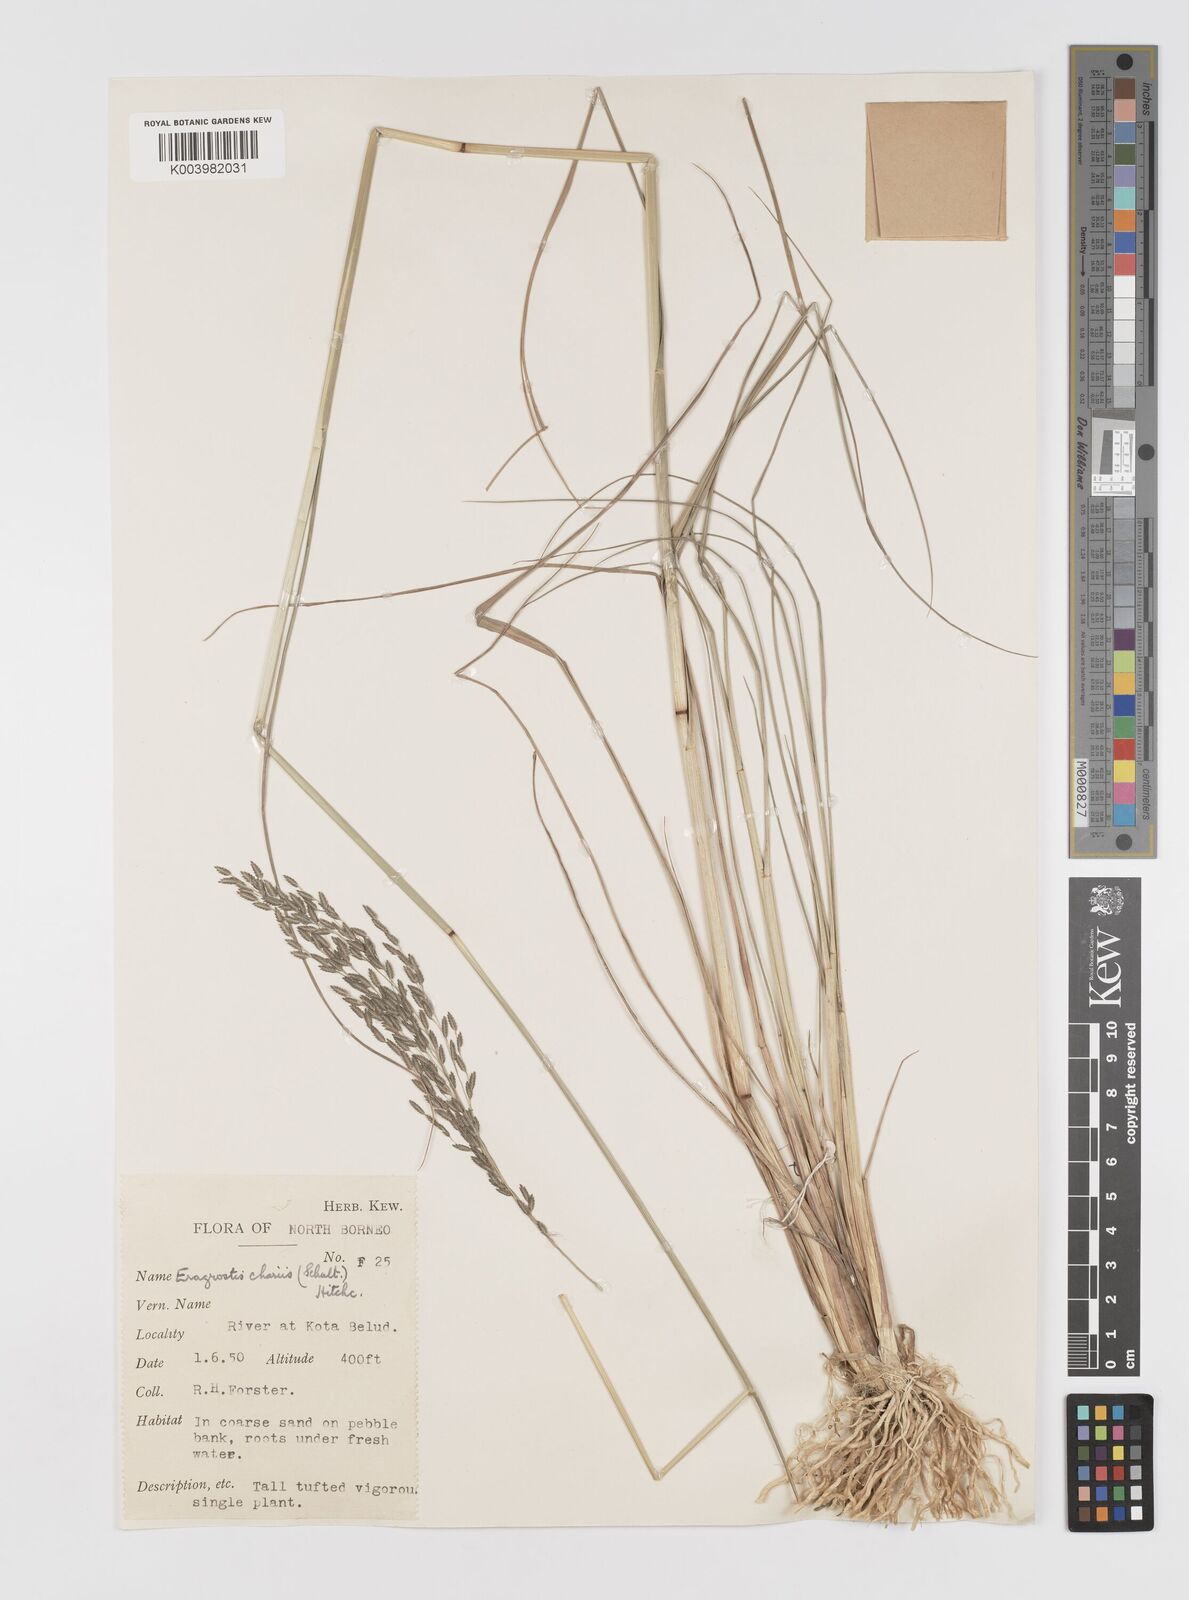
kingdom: Plantae
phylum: Tracheophyta
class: Liliopsida
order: Poales
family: Poaceae
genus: Eragrostis
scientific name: Eragrostis atrovirens
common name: Thalia lovegrass
